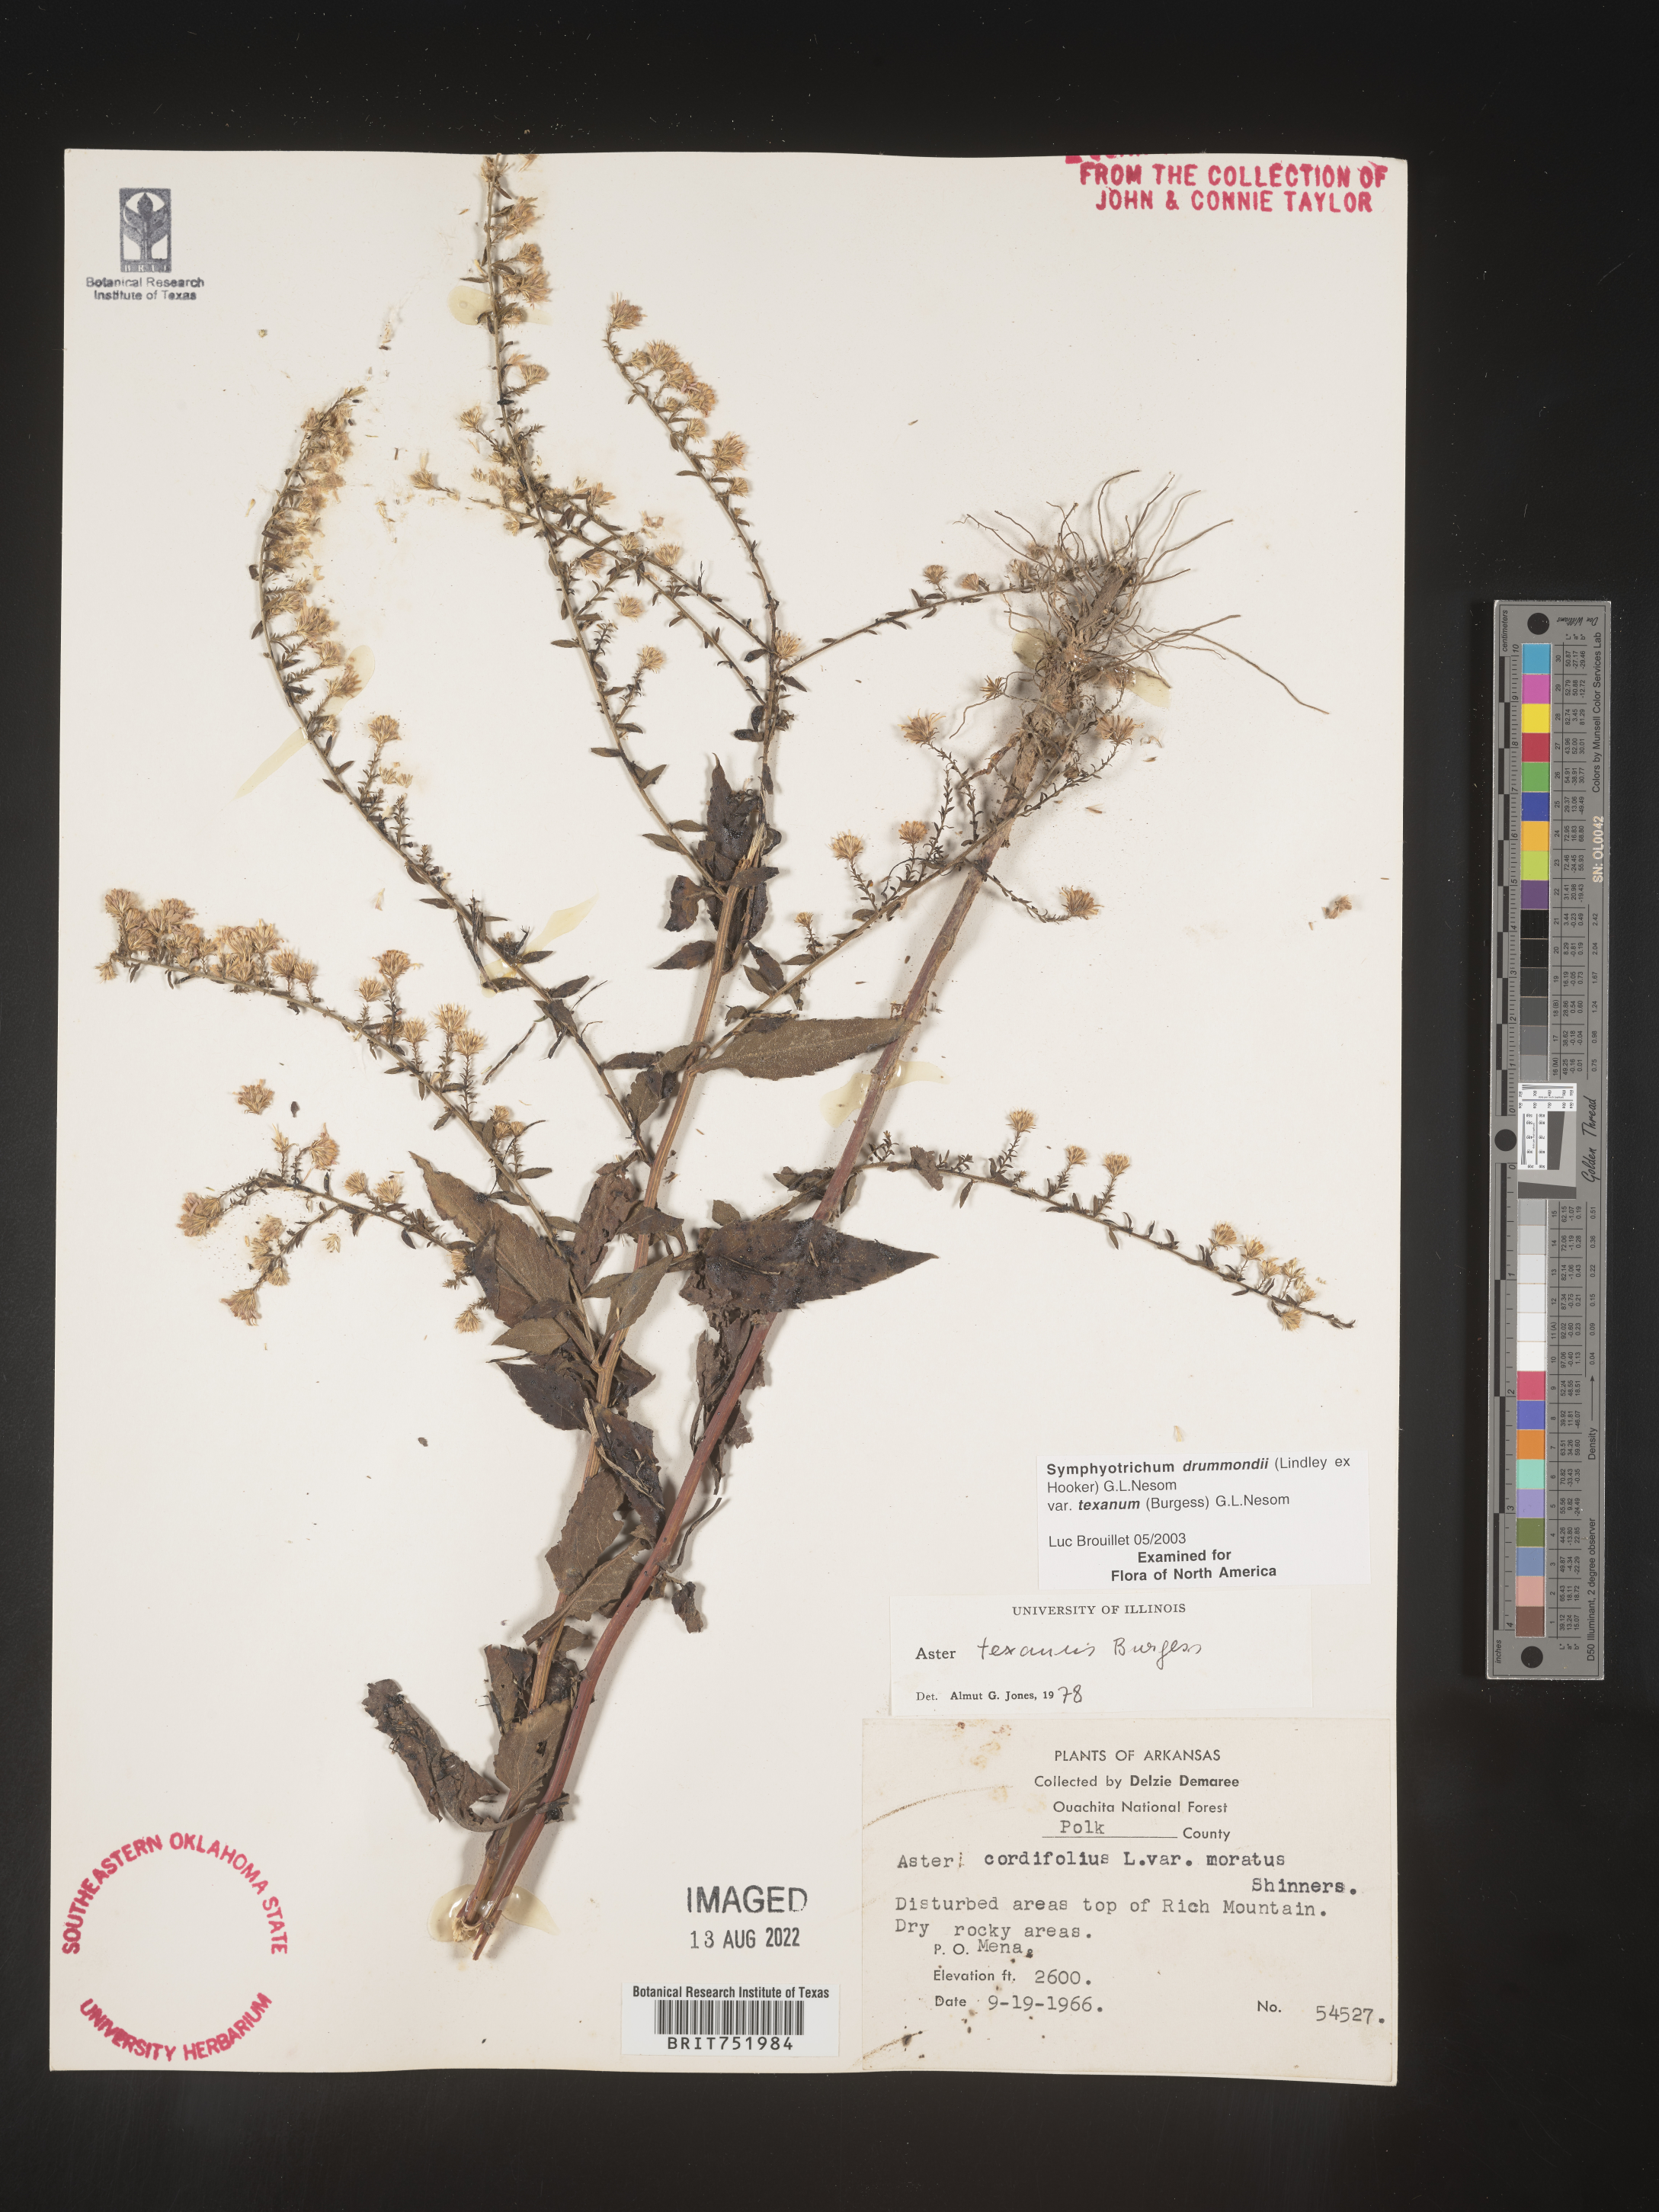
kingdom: Plantae
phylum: Tracheophyta
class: Magnoliopsida
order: Asterales
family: Asteraceae
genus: Symphyotrichum
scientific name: Symphyotrichum drummondii
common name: Drummond's aster
